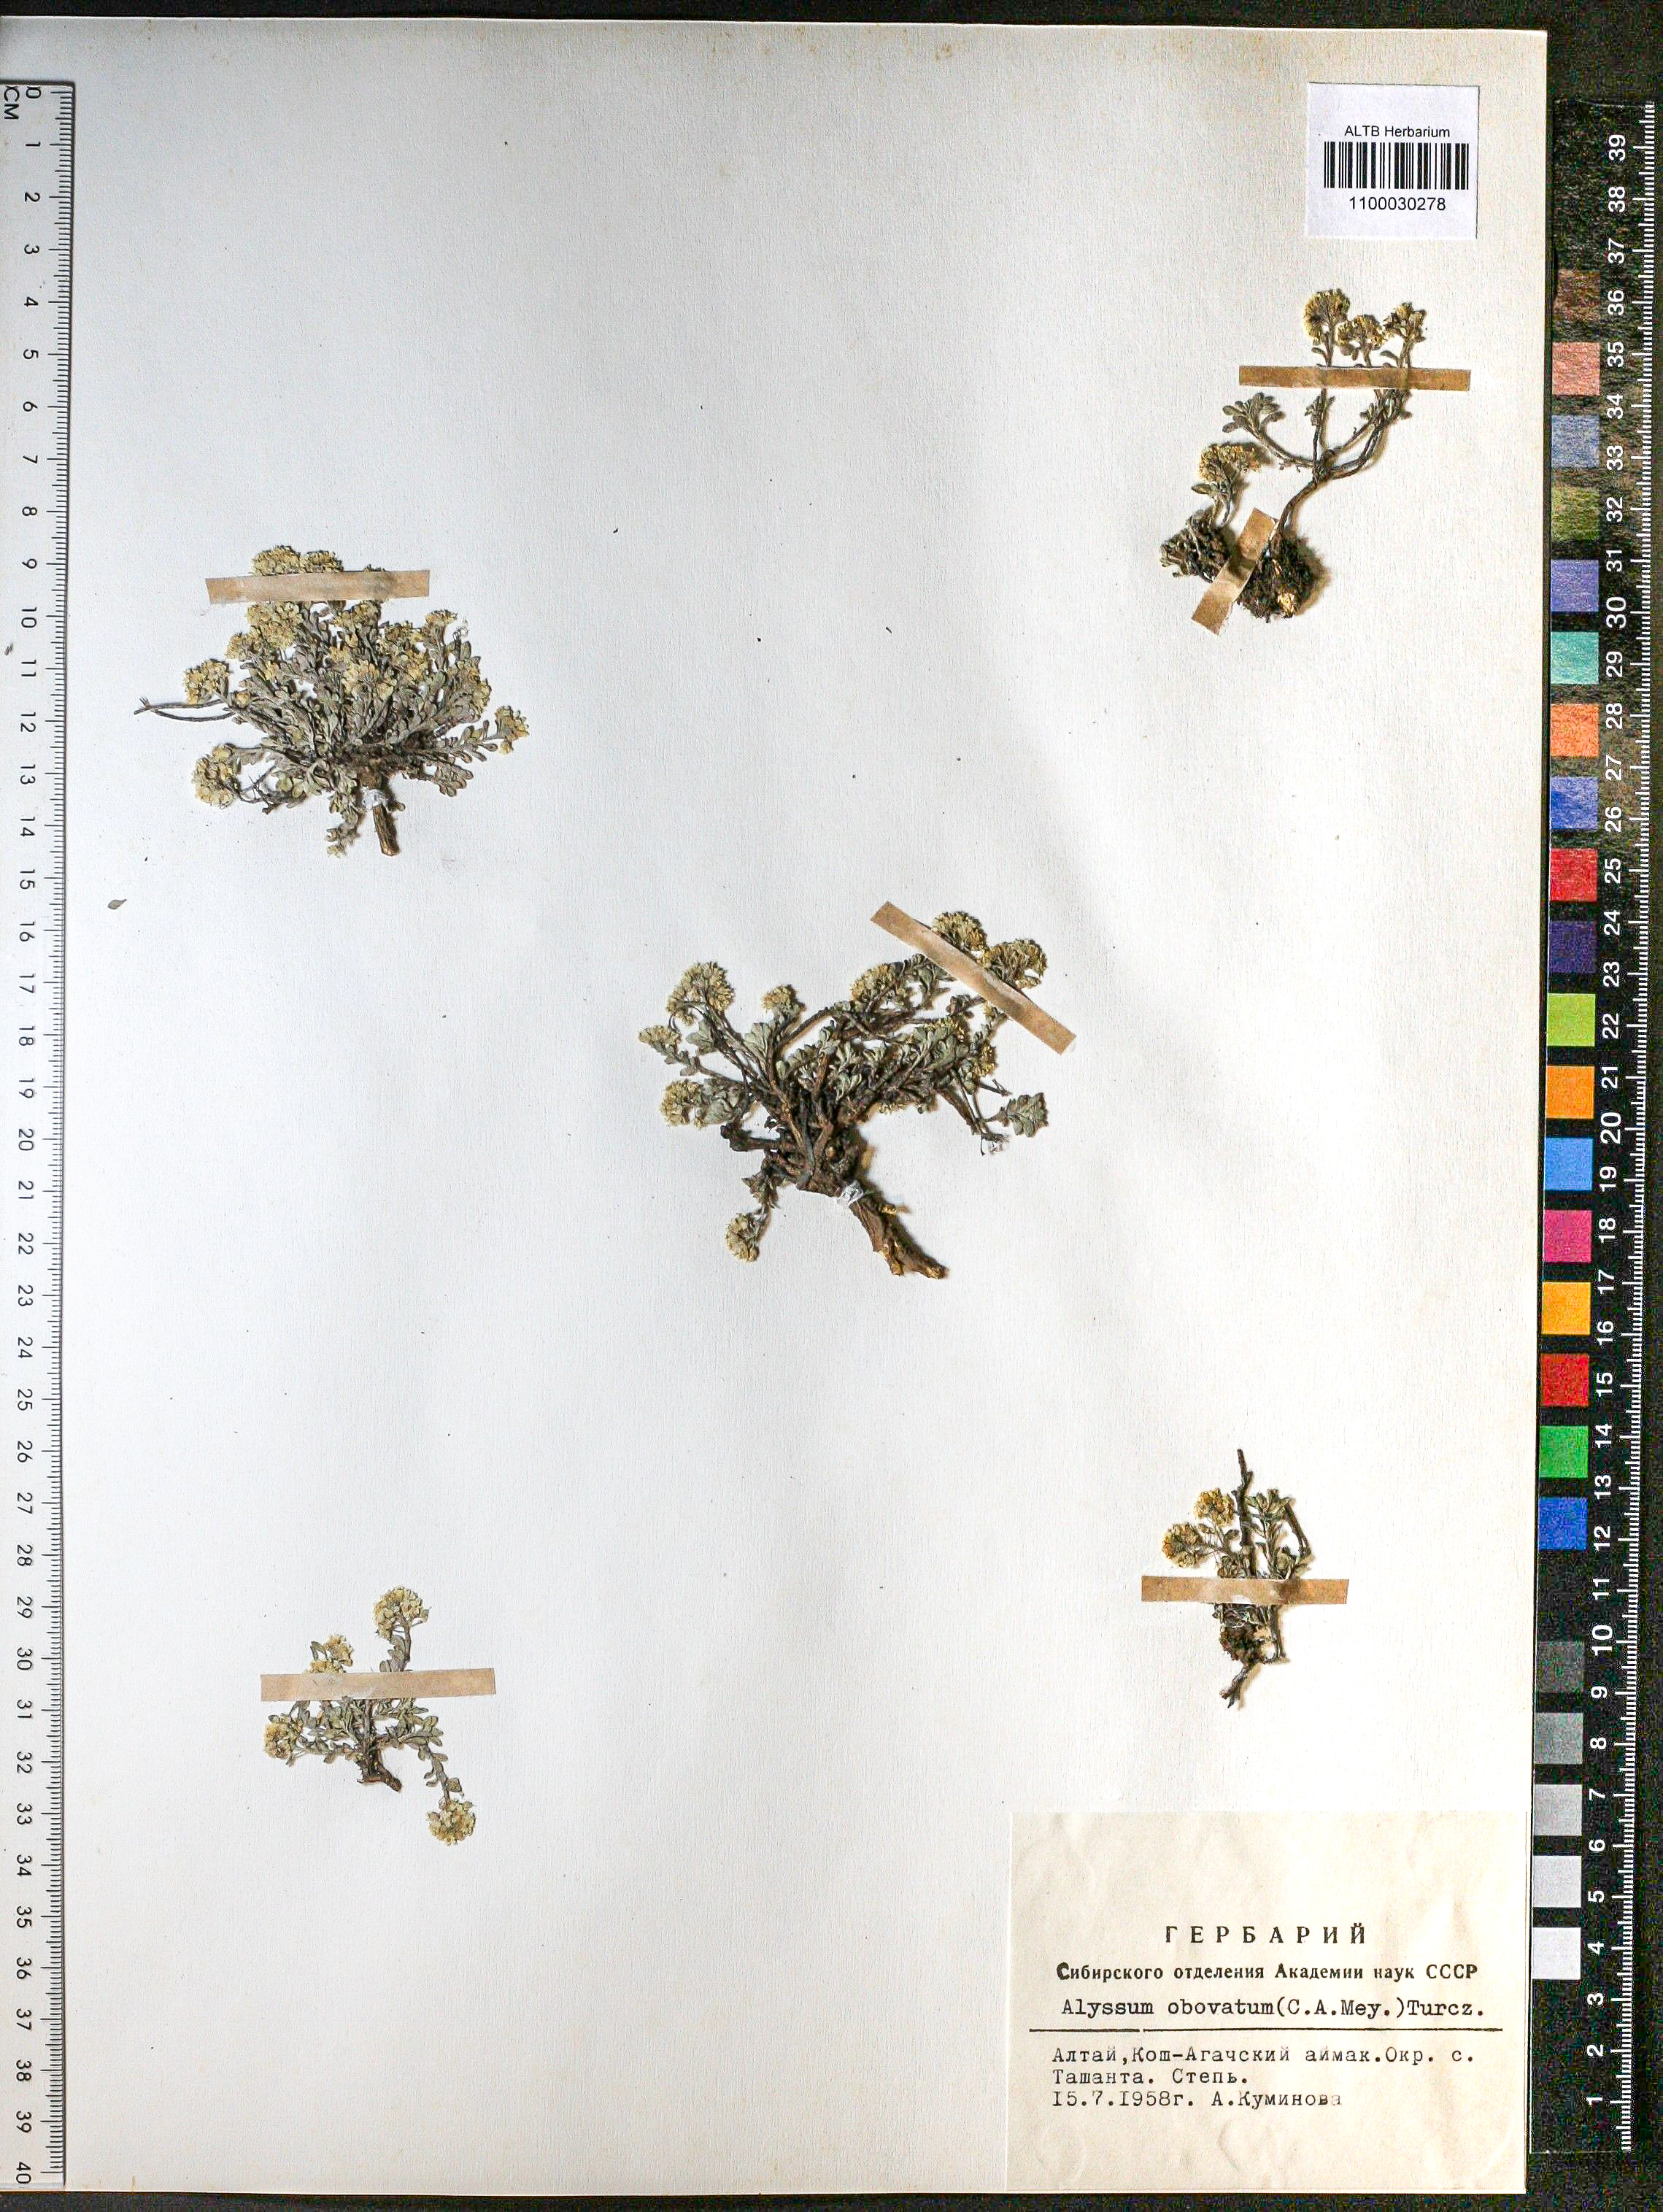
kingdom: Plantae
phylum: Tracheophyta
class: Magnoliopsida
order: Brassicales
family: Brassicaceae
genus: Odontarrhena
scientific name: Odontarrhena obovata
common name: American alyssum
